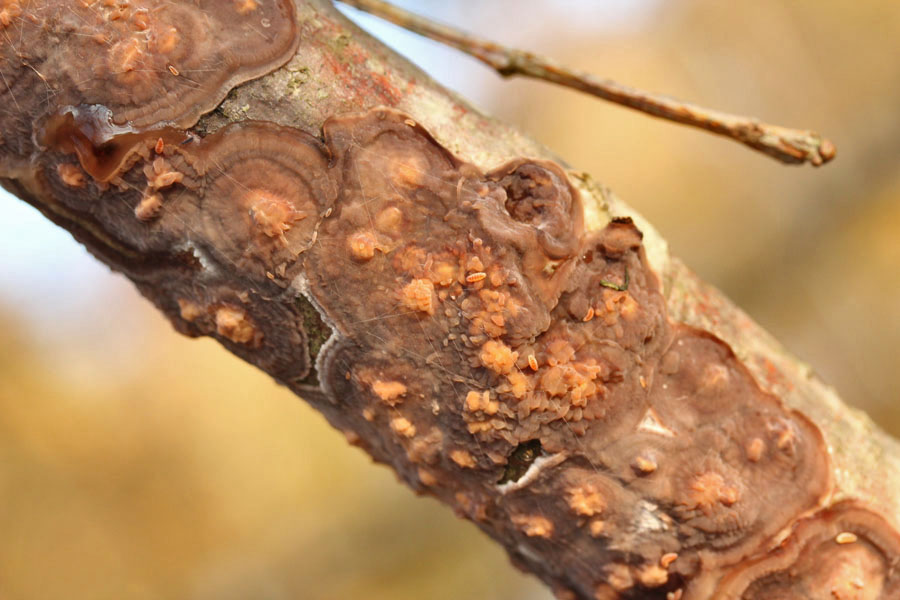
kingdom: Fungi
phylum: Basidiomycota
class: Agaricomycetes
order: Polyporales
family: Meruliaceae
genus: Phlebia
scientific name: Phlebia radiata
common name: stråle-åresvamp
